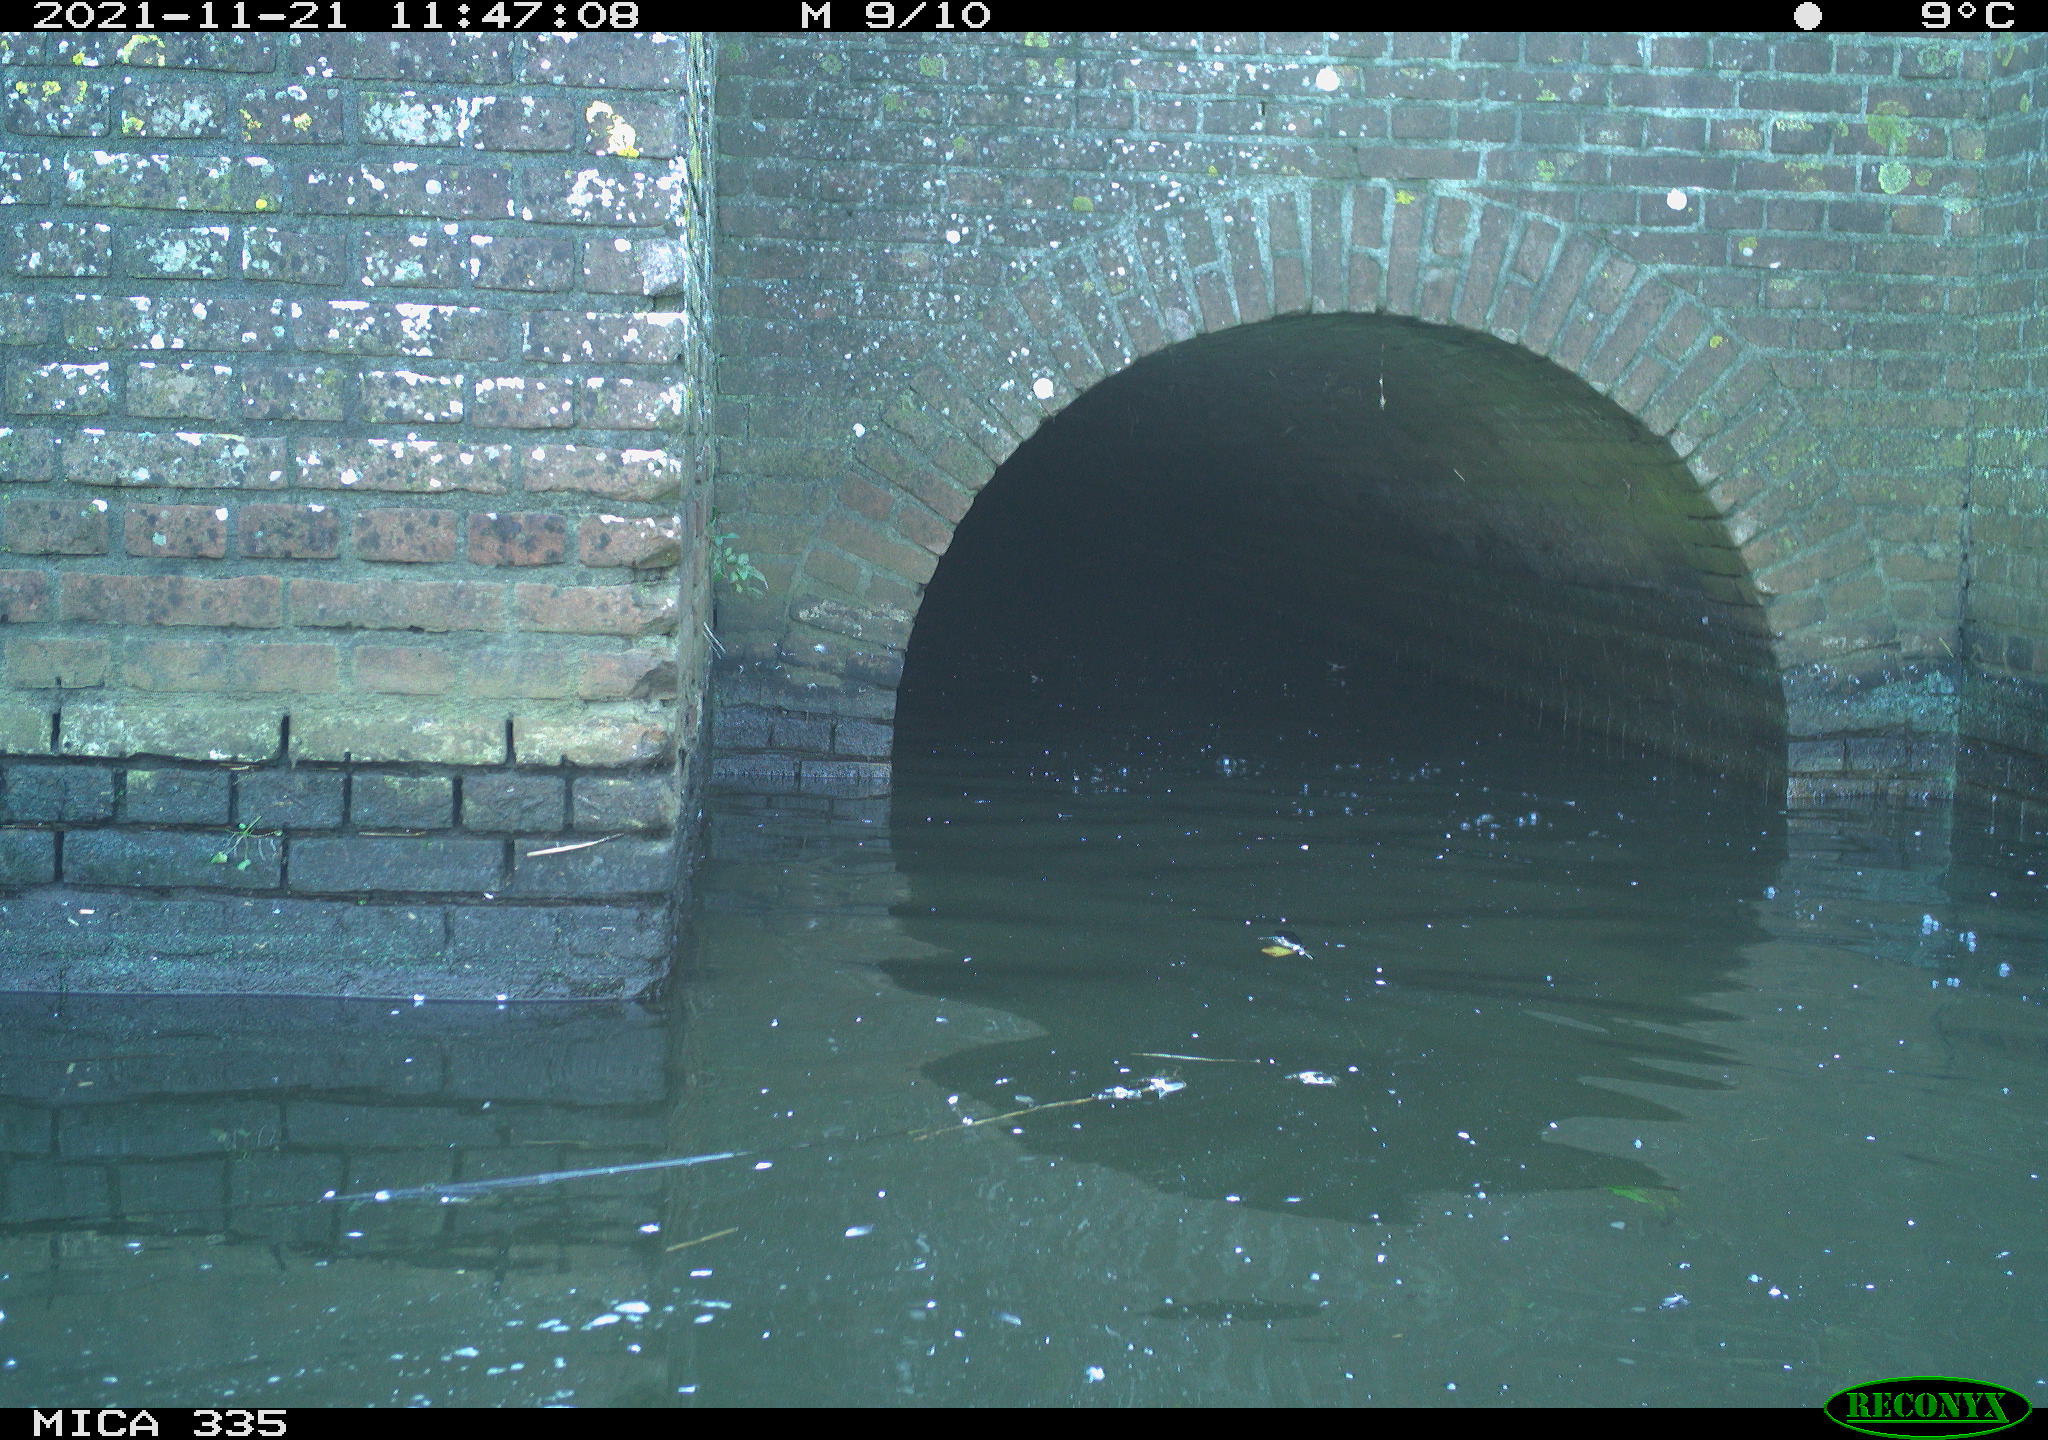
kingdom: Animalia
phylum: Chordata
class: Aves
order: Gruiformes
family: Rallidae
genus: Fulica
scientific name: Fulica atra
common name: Eurasian coot
